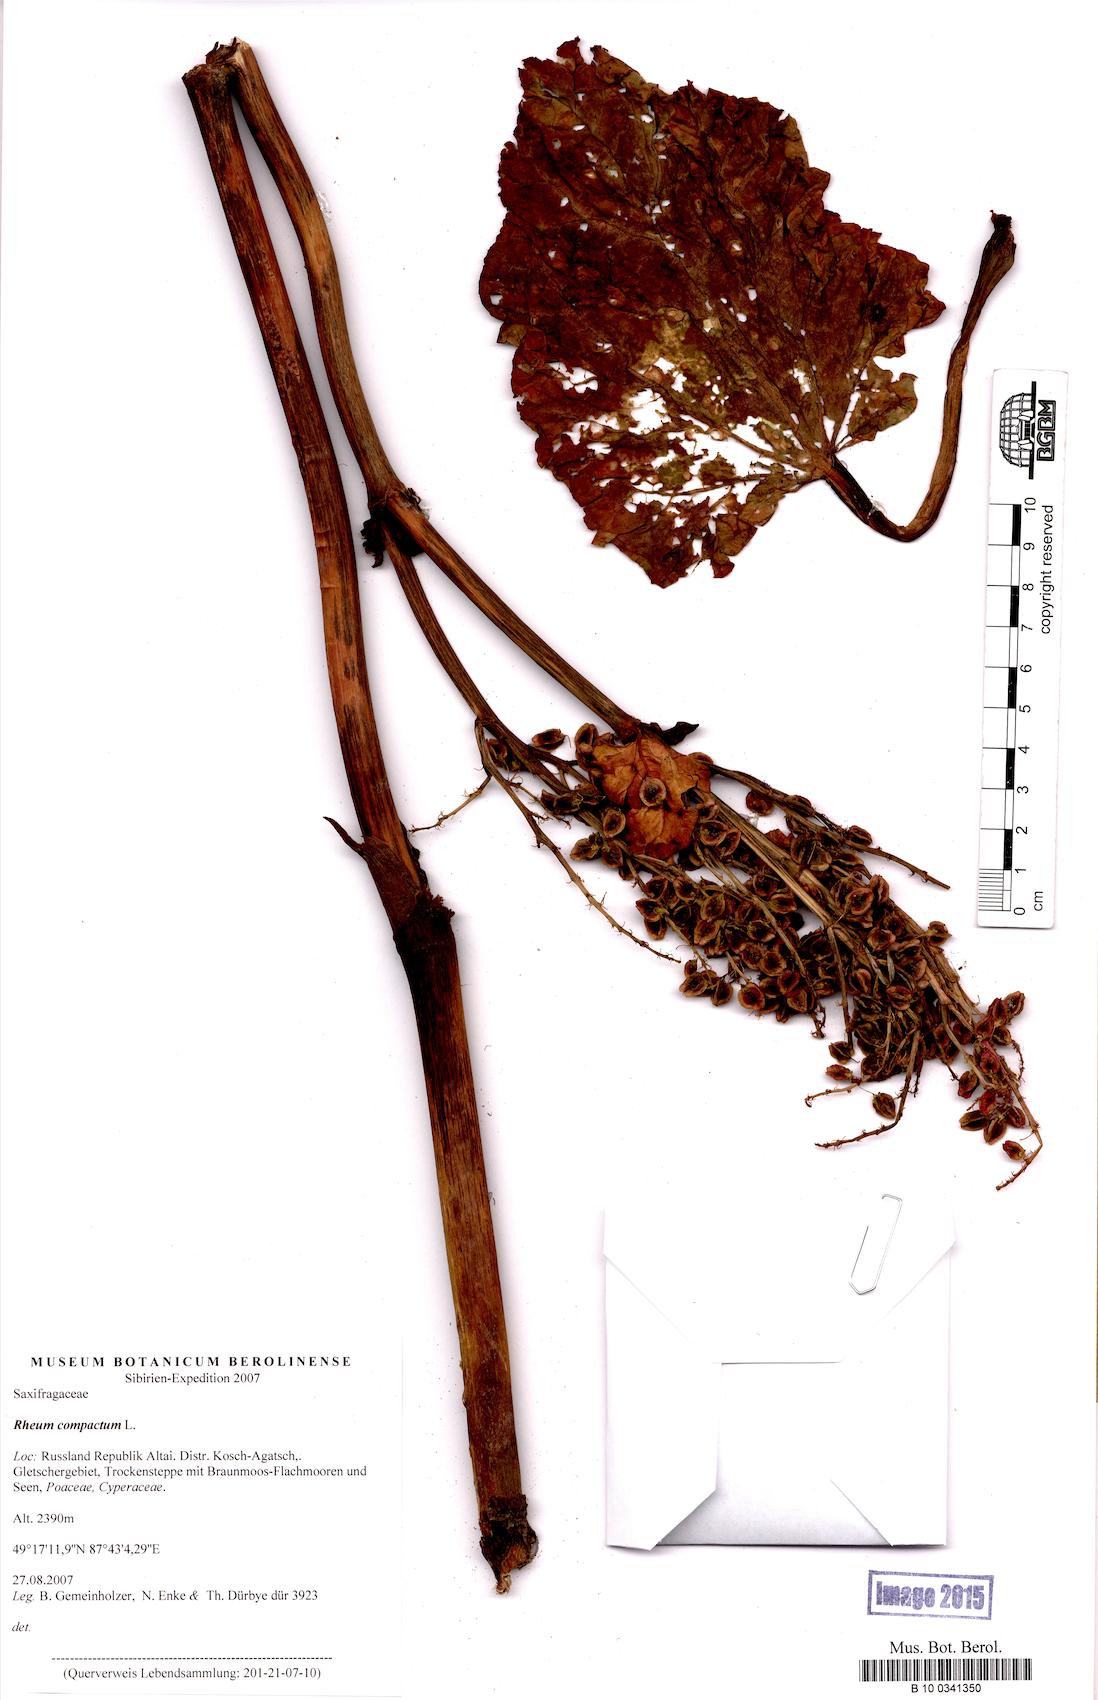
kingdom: Plantae
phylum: Tracheophyta
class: Magnoliopsida
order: Caryophyllales
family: Polygonaceae
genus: Rheum
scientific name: Rheum compactum
